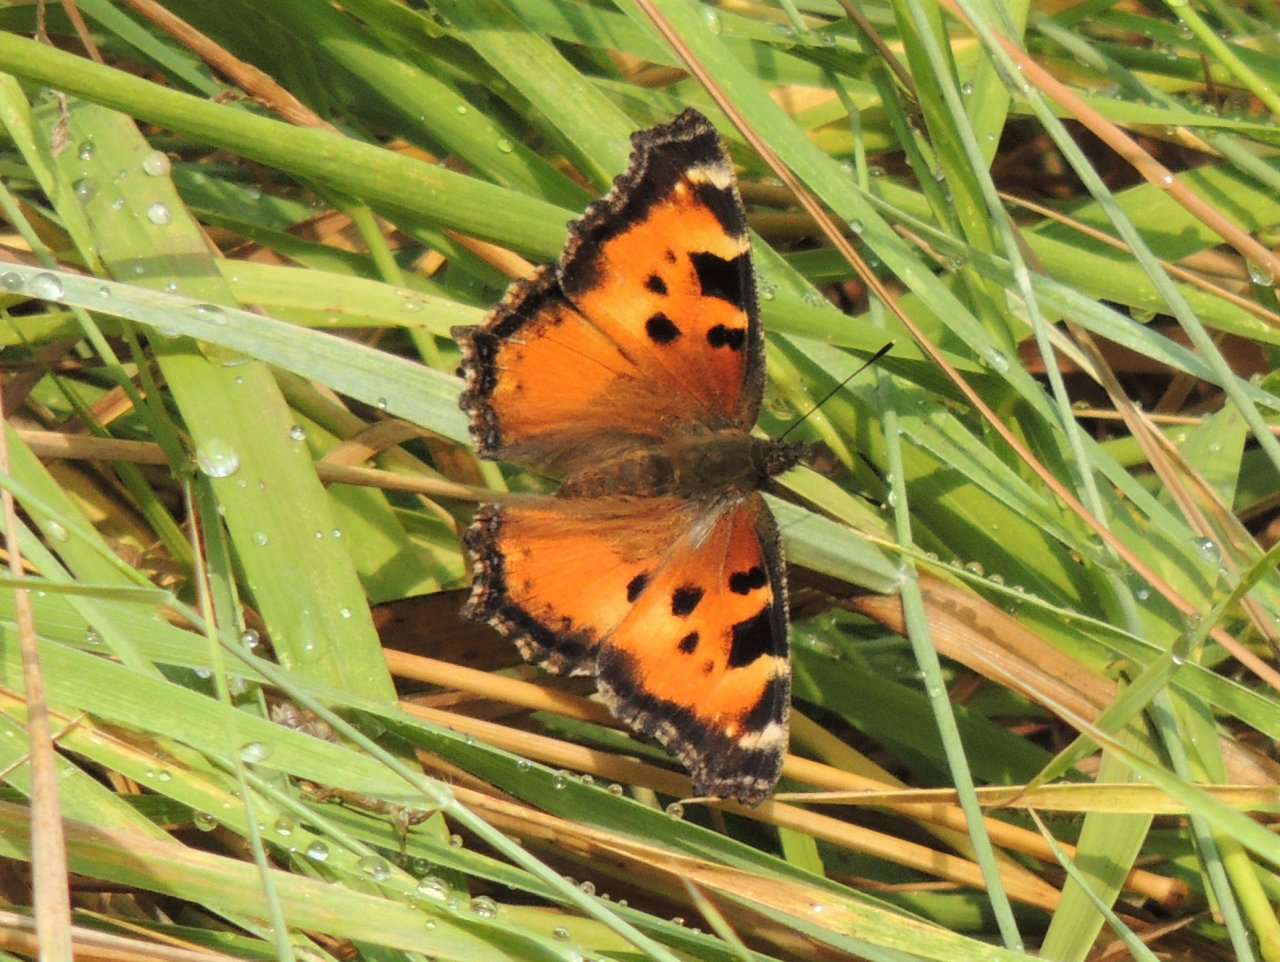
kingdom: Animalia
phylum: Arthropoda
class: Insecta
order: Lepidoptera
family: Nymphalidae
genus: Nymphalis
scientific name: Nymphalis californica
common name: California Tortoiseshell
